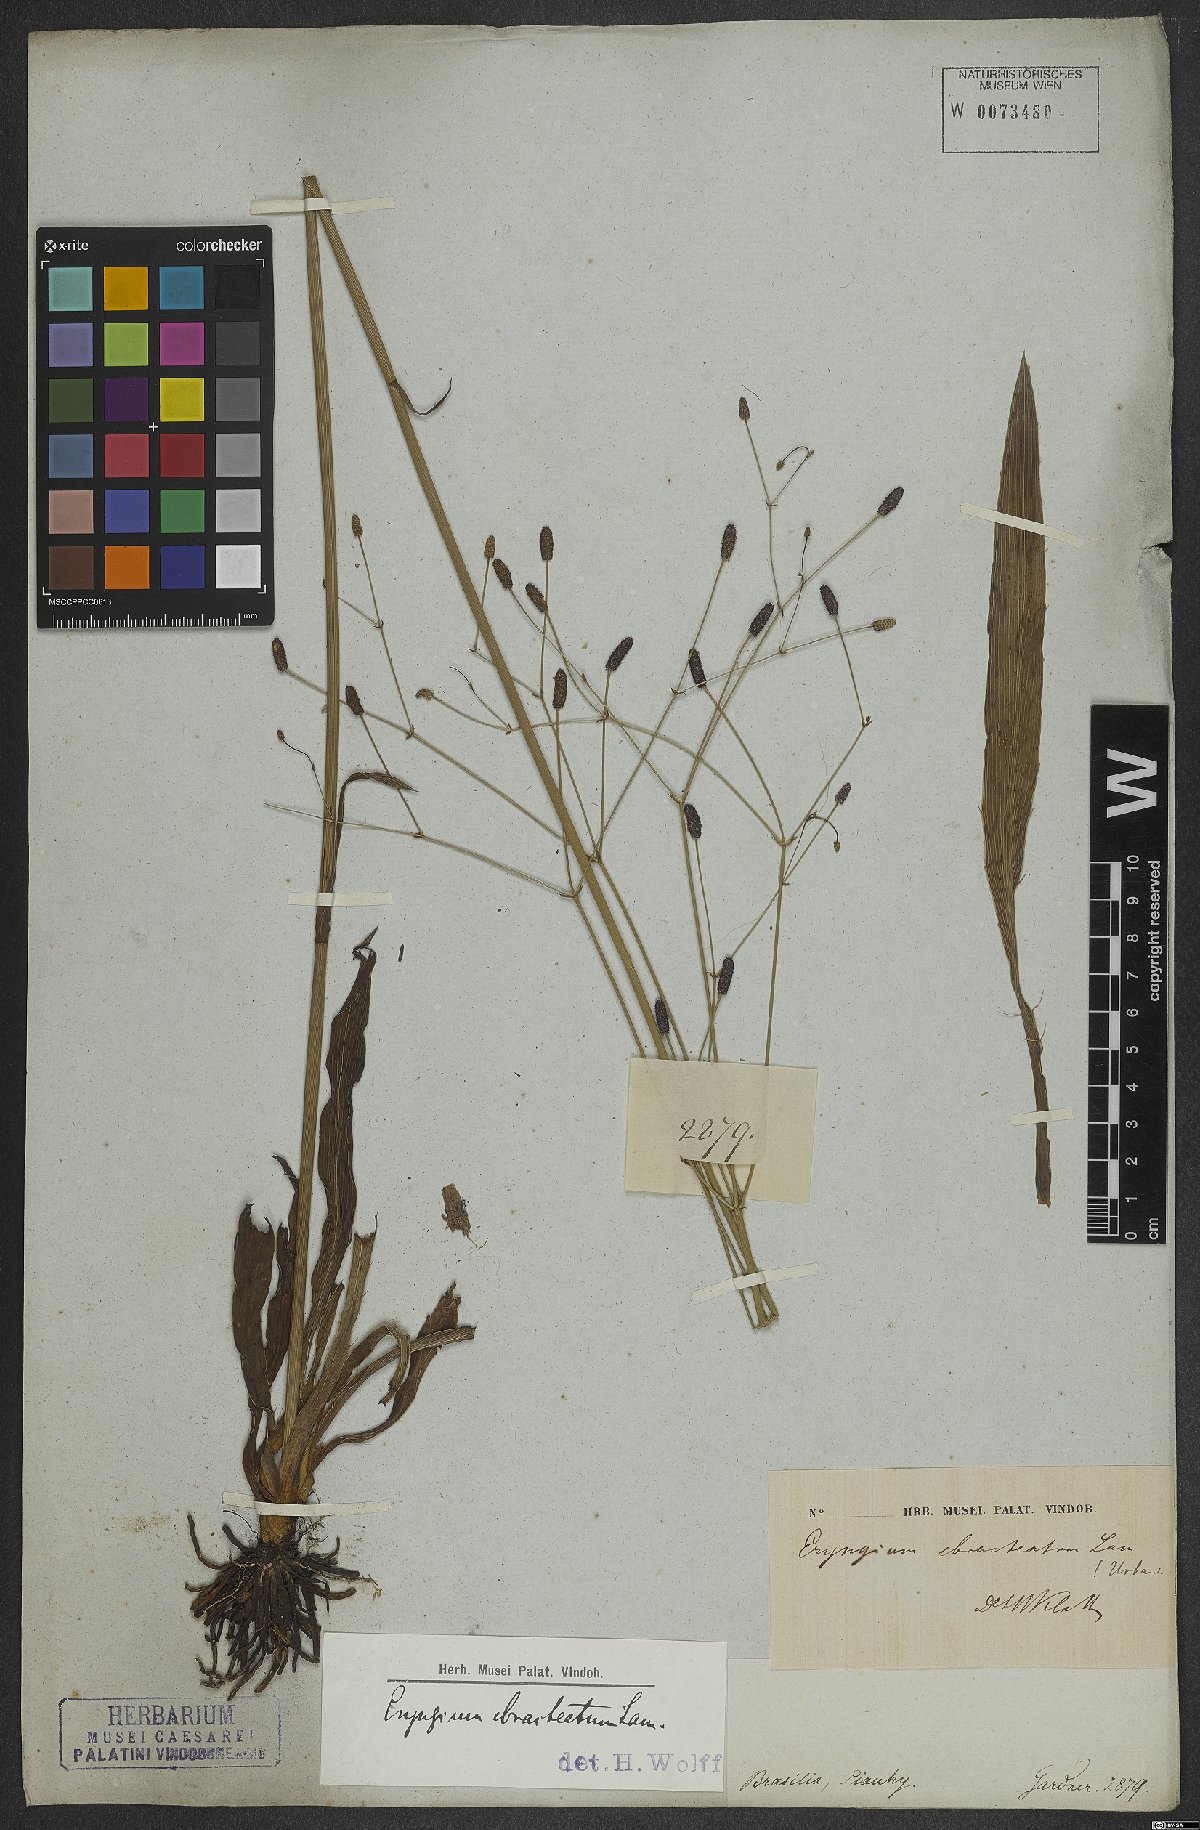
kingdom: Plantae
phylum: Tracheophyta
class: Magnoliopsida
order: Apiales
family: Apiaceae
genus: Eryngium
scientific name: Eryngium ebracteatum
